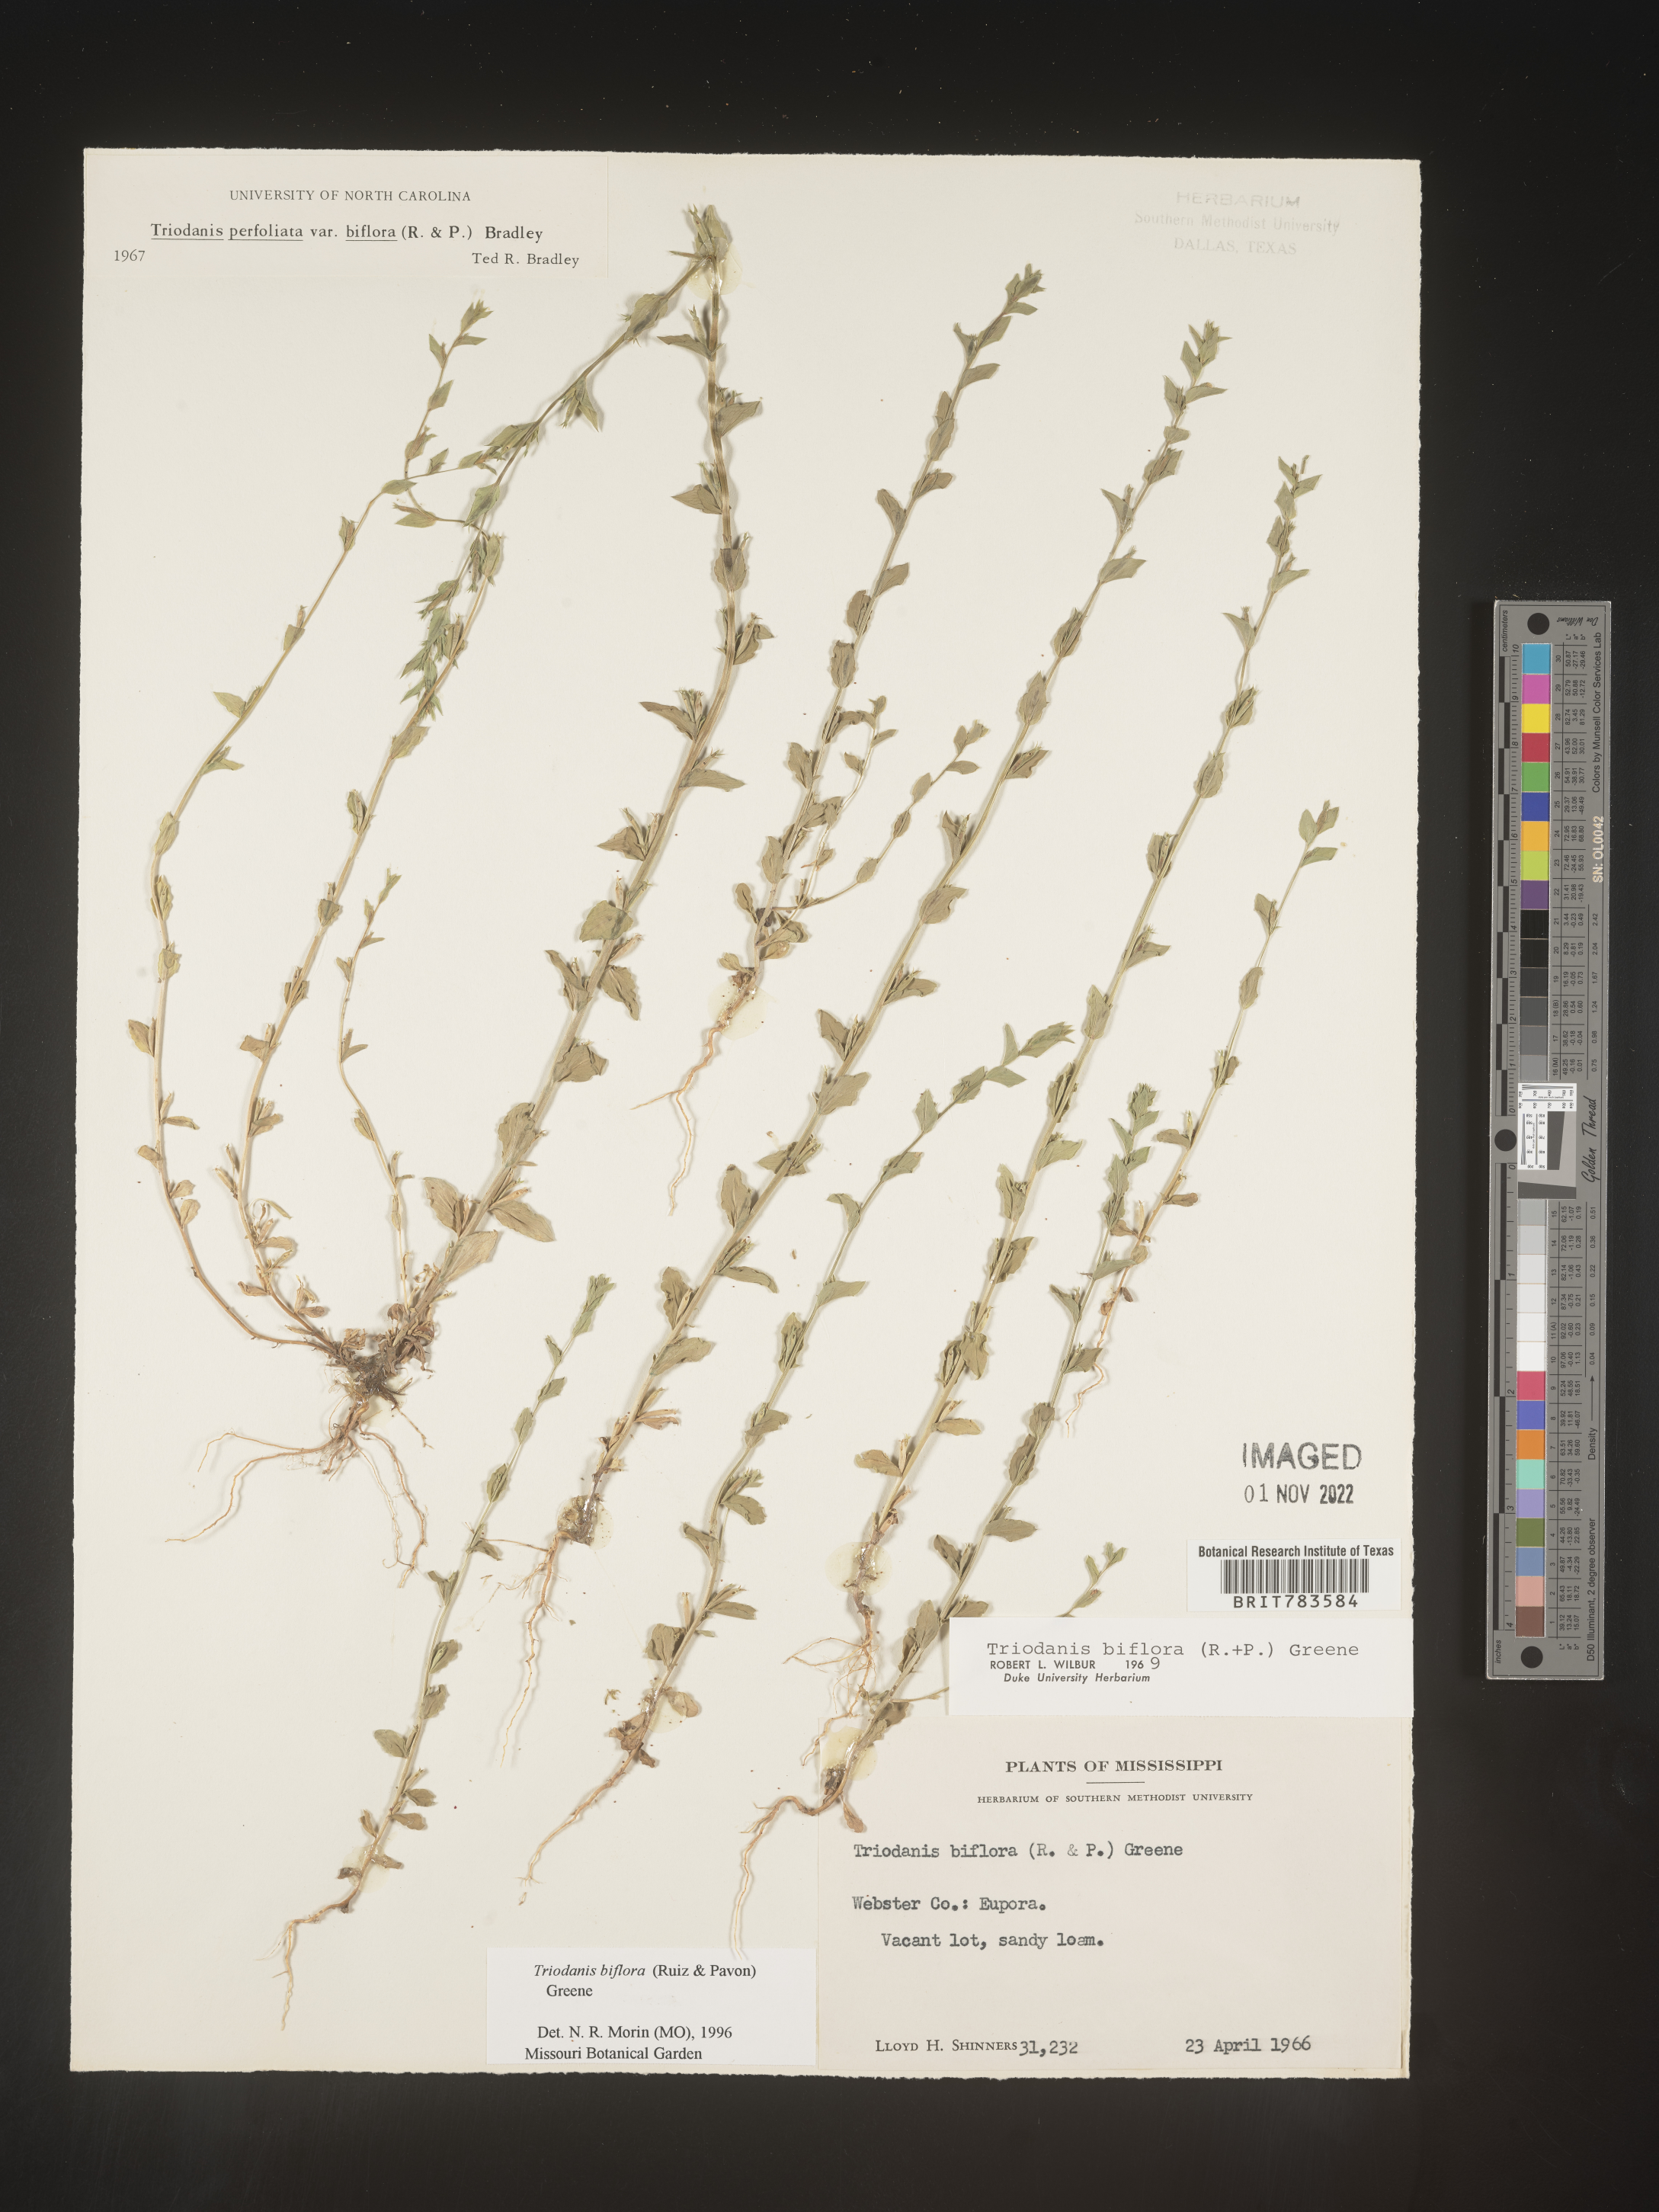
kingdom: Plantae
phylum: Tracheophyta
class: Magnoliopsida
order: Asterales
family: Campanulaceae
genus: Triodanis
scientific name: Triodanis perfoliata
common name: Clasping venus' looking-glass
